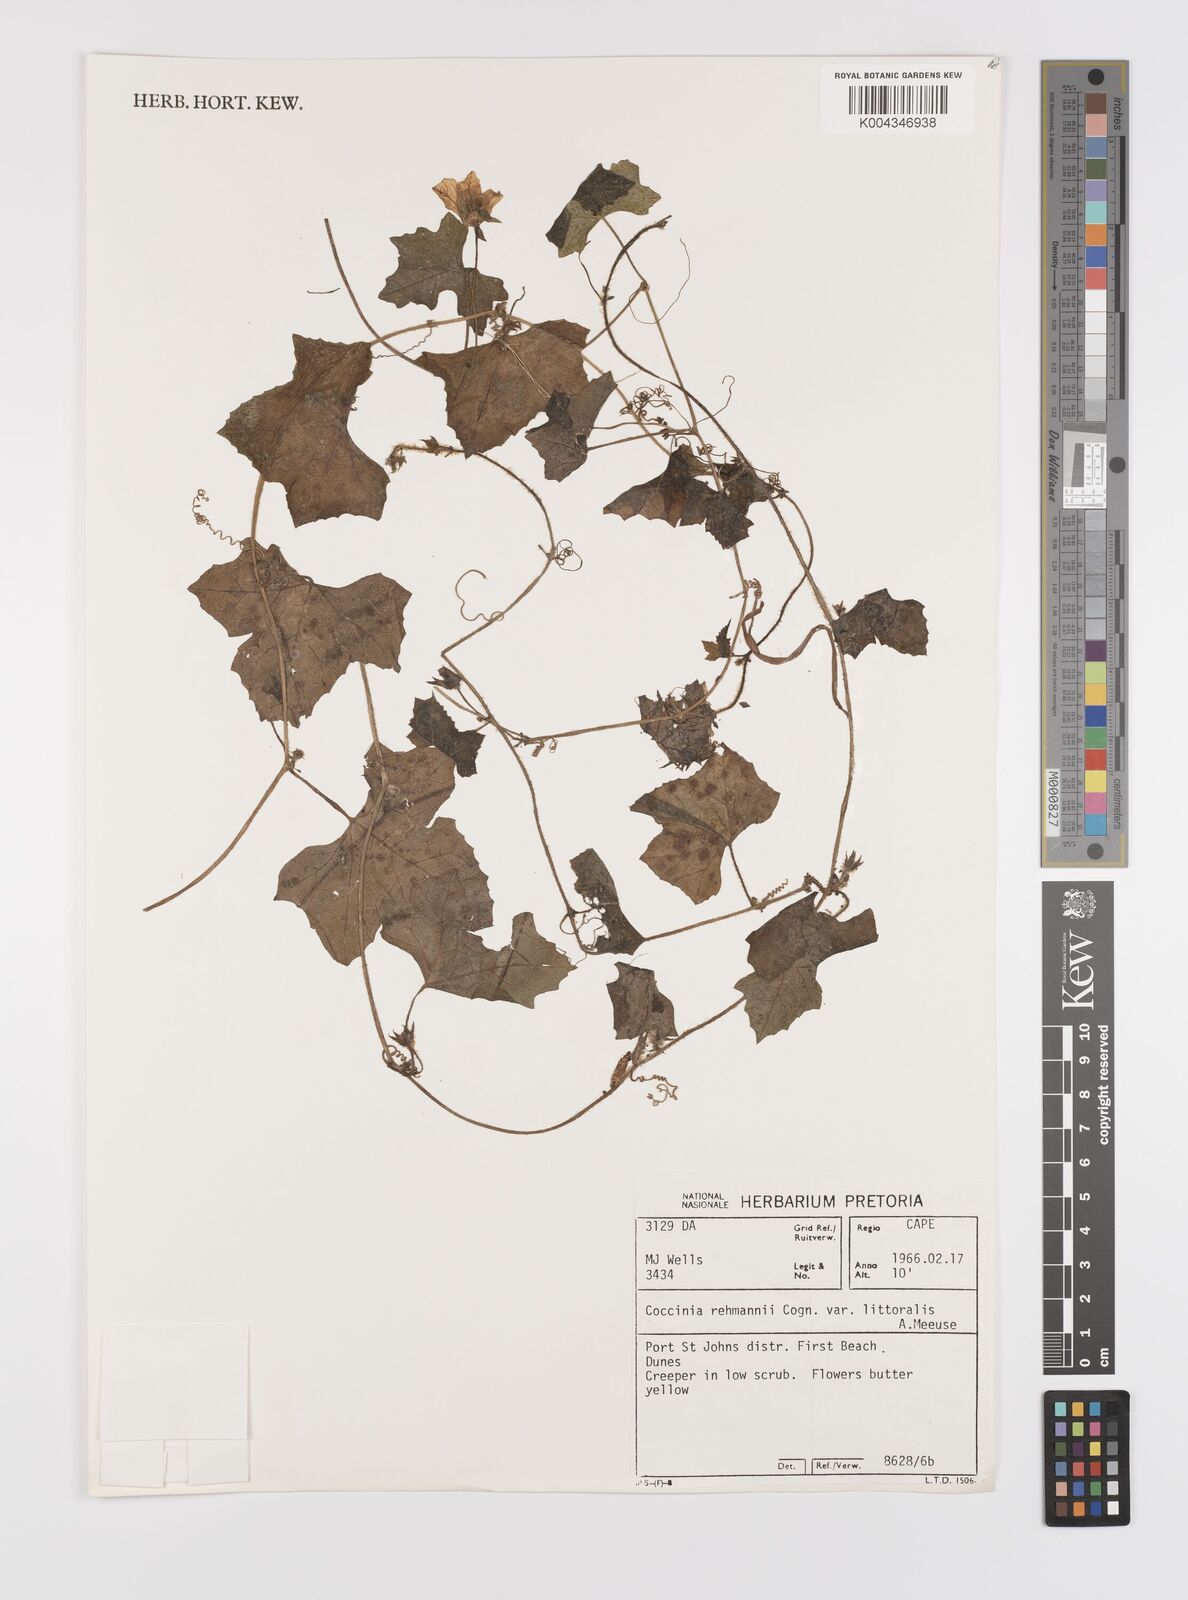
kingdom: Plantae
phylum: Tracheophyta
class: Magnoliopsida
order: Cucurbitales
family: Cucurbitaceae
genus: Coccinia
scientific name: Coccinia rehmannii
